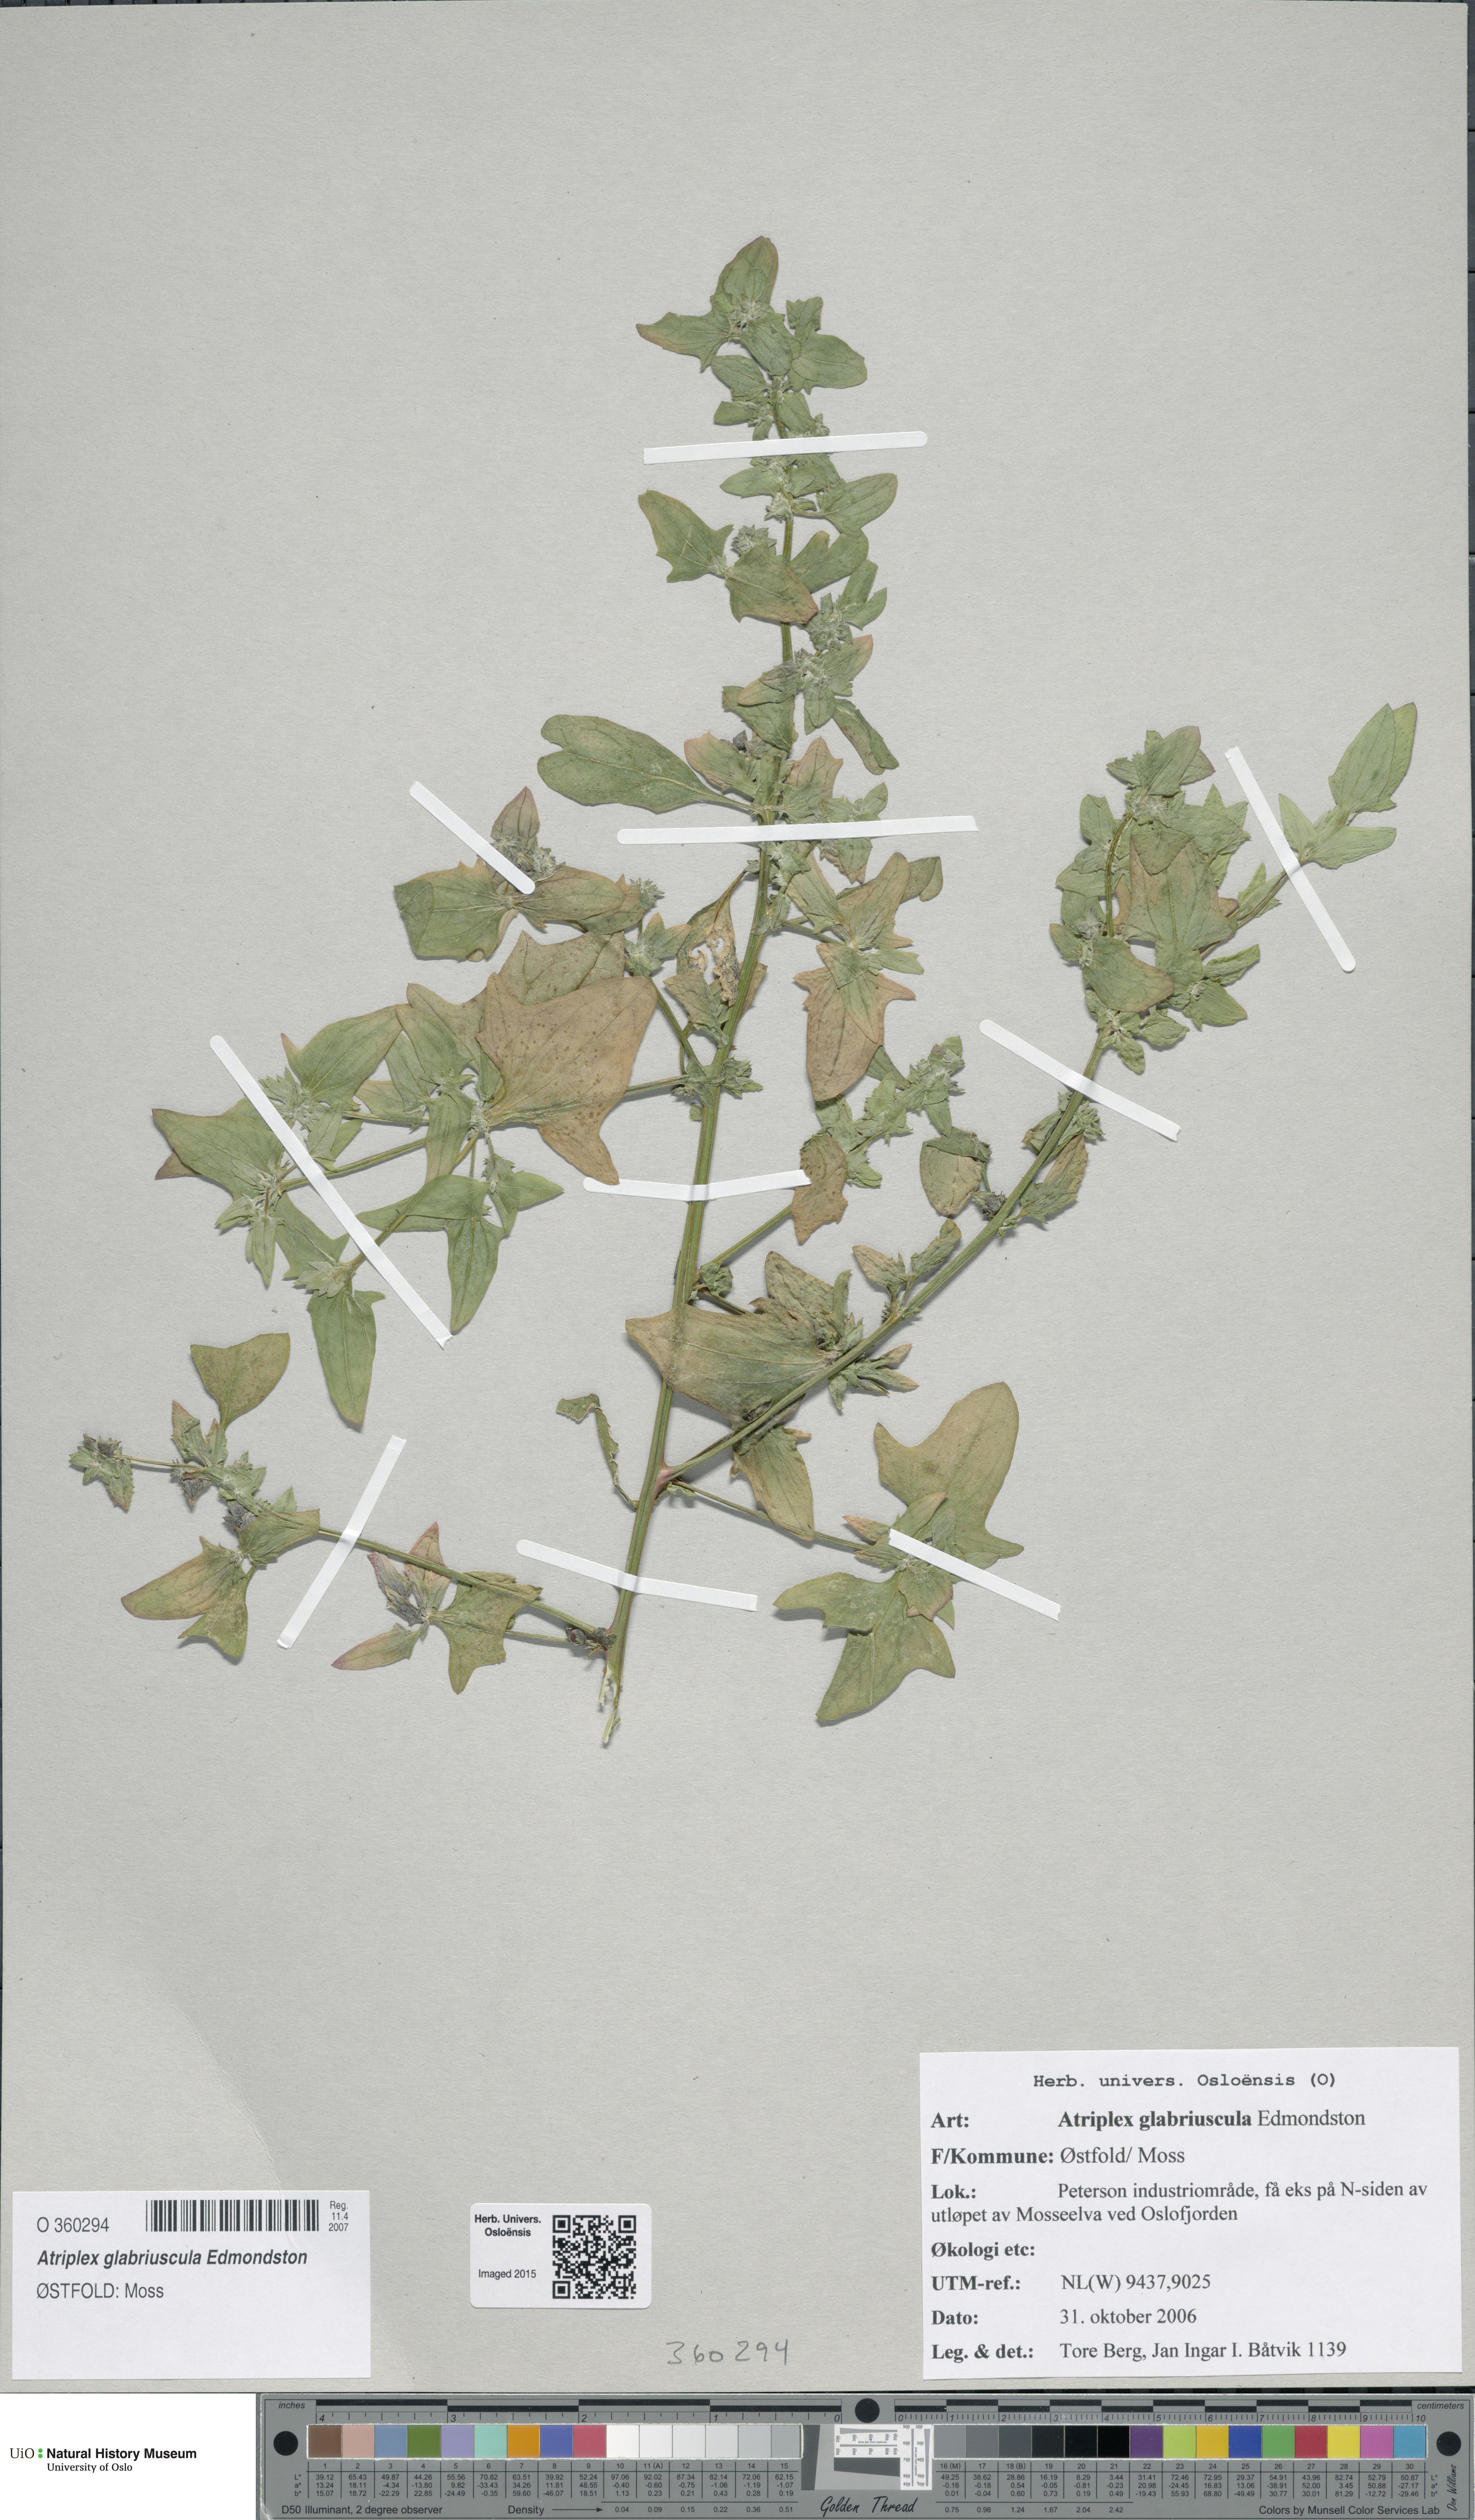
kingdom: Plantae
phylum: Tracheophyta
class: Magnoliopsida
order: Caryophyllales
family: Amaranthaceae
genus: Atriplex
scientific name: Atriplex glabriuscula
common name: Babington's orache
